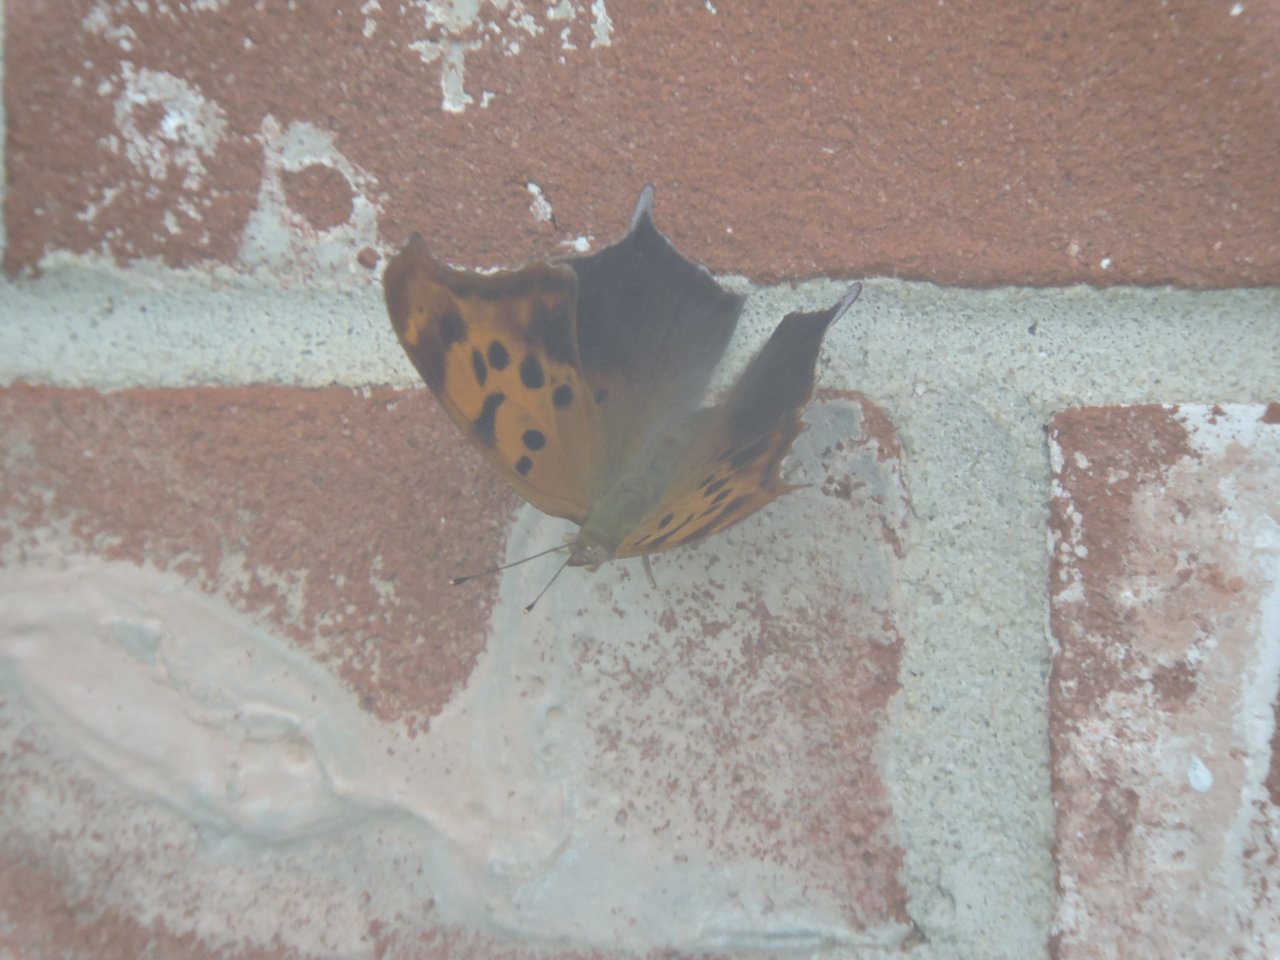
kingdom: Animalia
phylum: Arthropoda
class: Insecta
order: Lepidoptera
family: Nymphalidae
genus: Polygonia
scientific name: Polygonia interrogationis
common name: Question Mark
